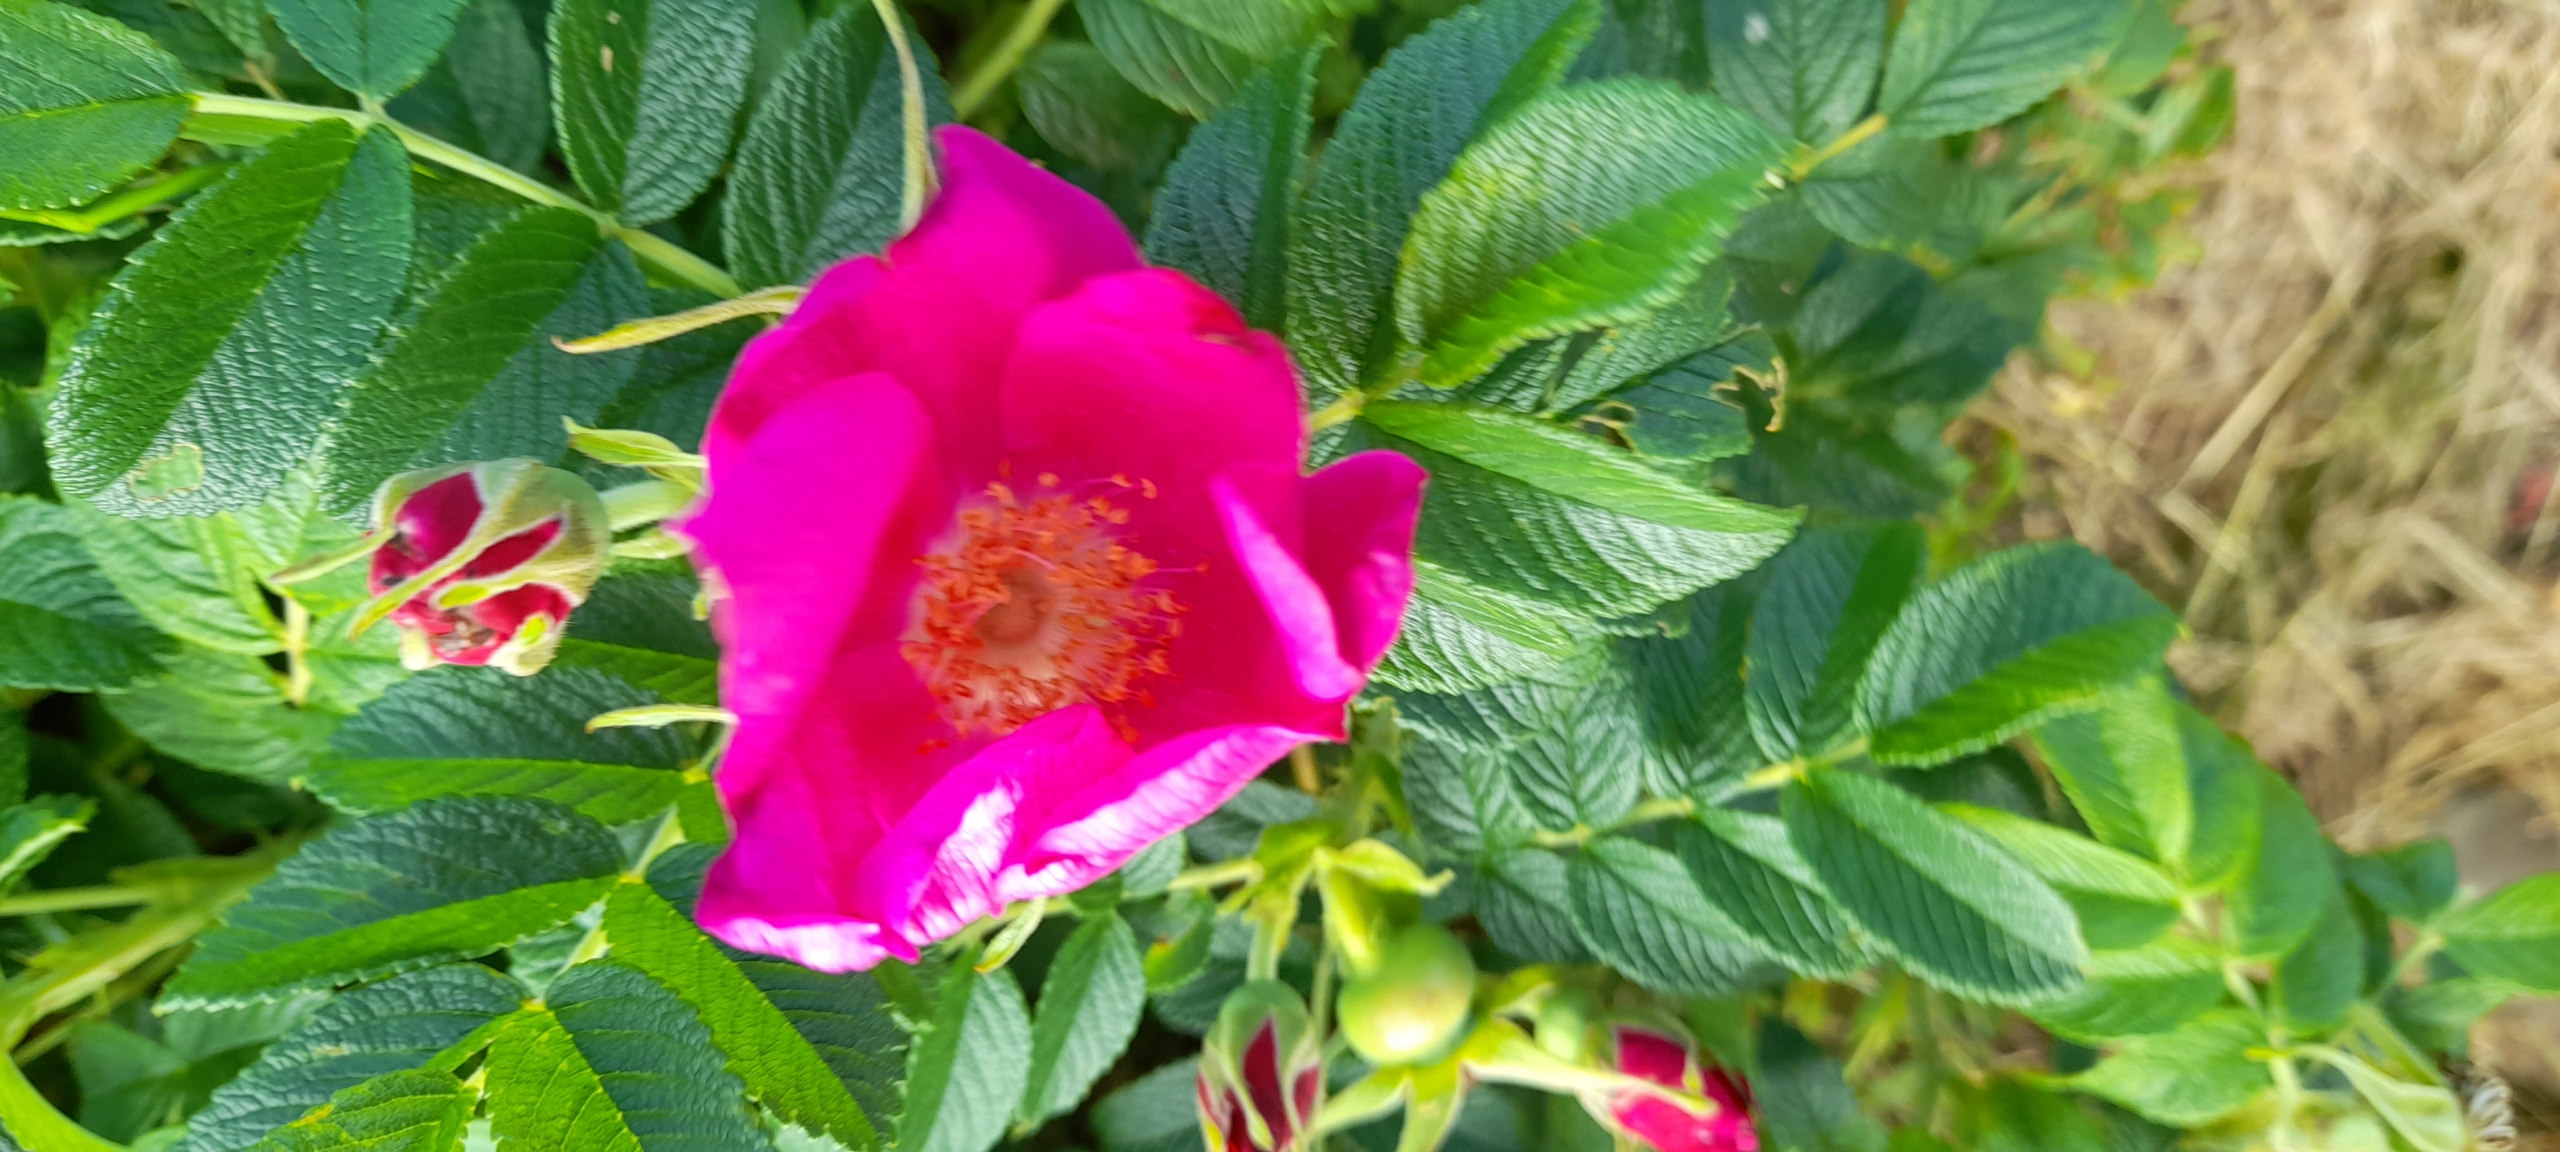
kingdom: Plantae
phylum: Tracheophyta
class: Magnoliopsida
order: Rosales
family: Rosaceae
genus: Rosa
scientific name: Rosa rugosa
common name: Rynket rose
